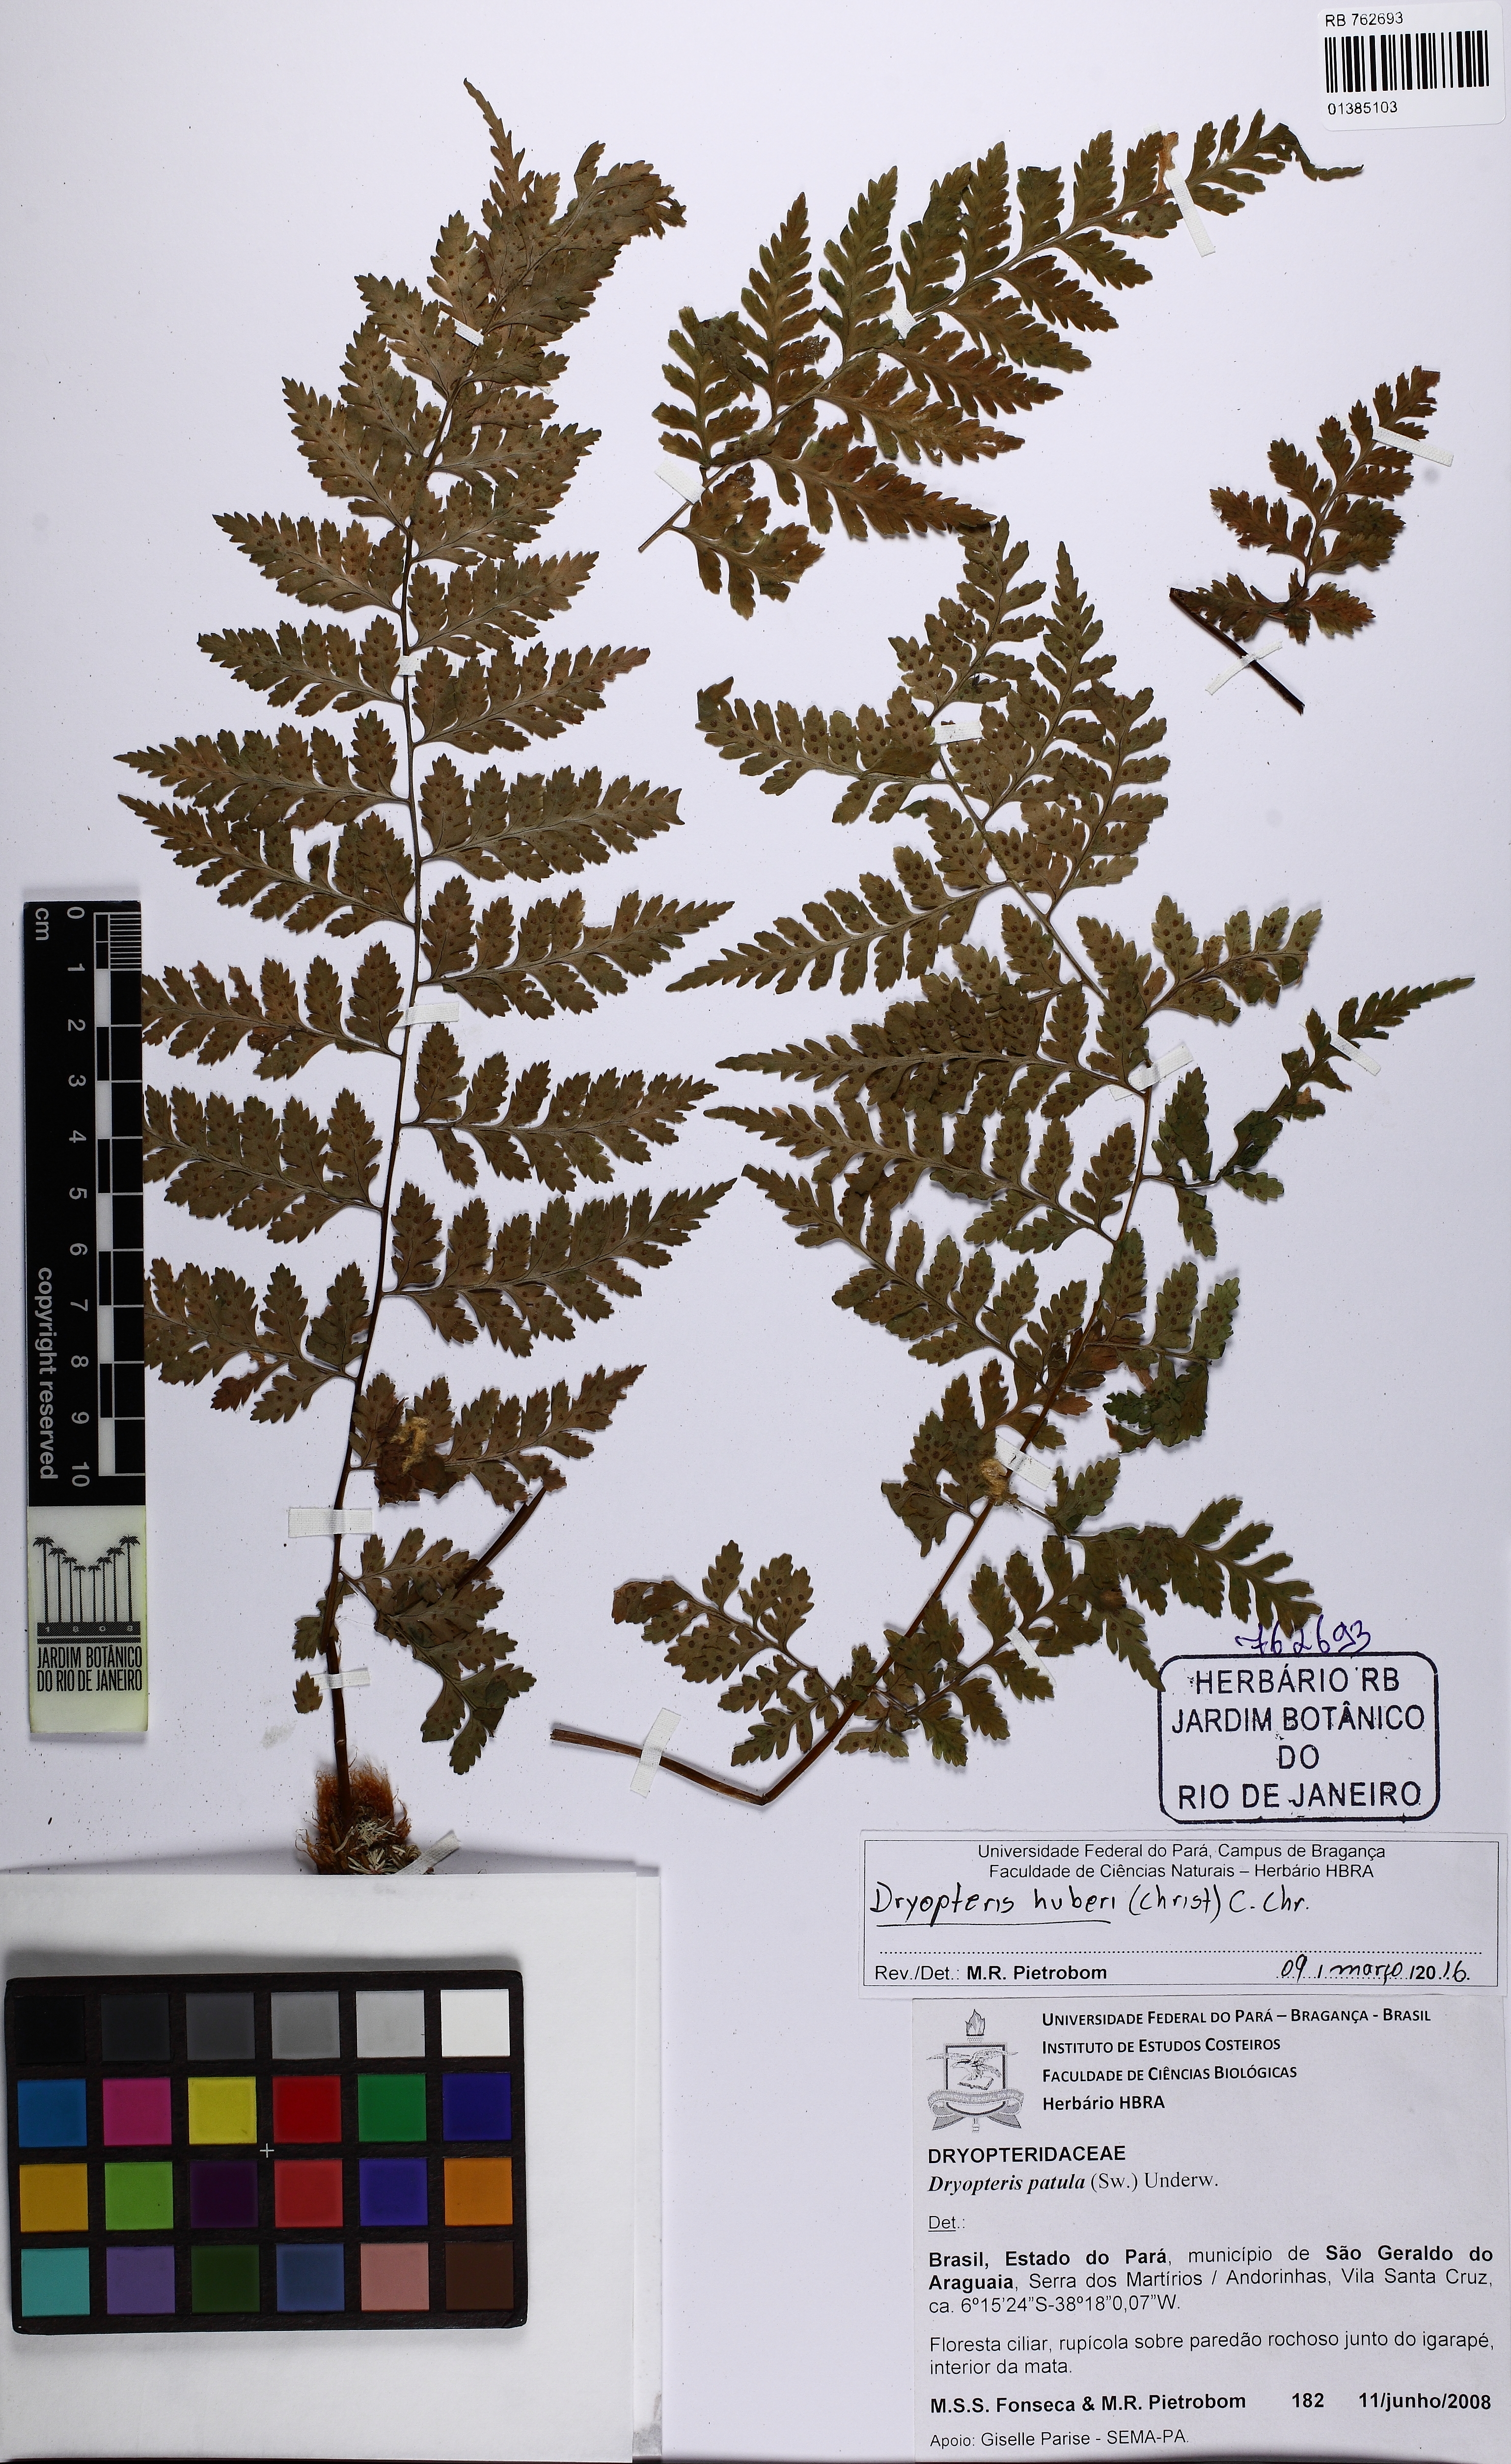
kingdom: Plantae
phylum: Tracheophyta
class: Polypodiopsida
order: Polypodiales
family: Dryopteridaceae
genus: Dryopteris
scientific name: Dryopteris huberi
